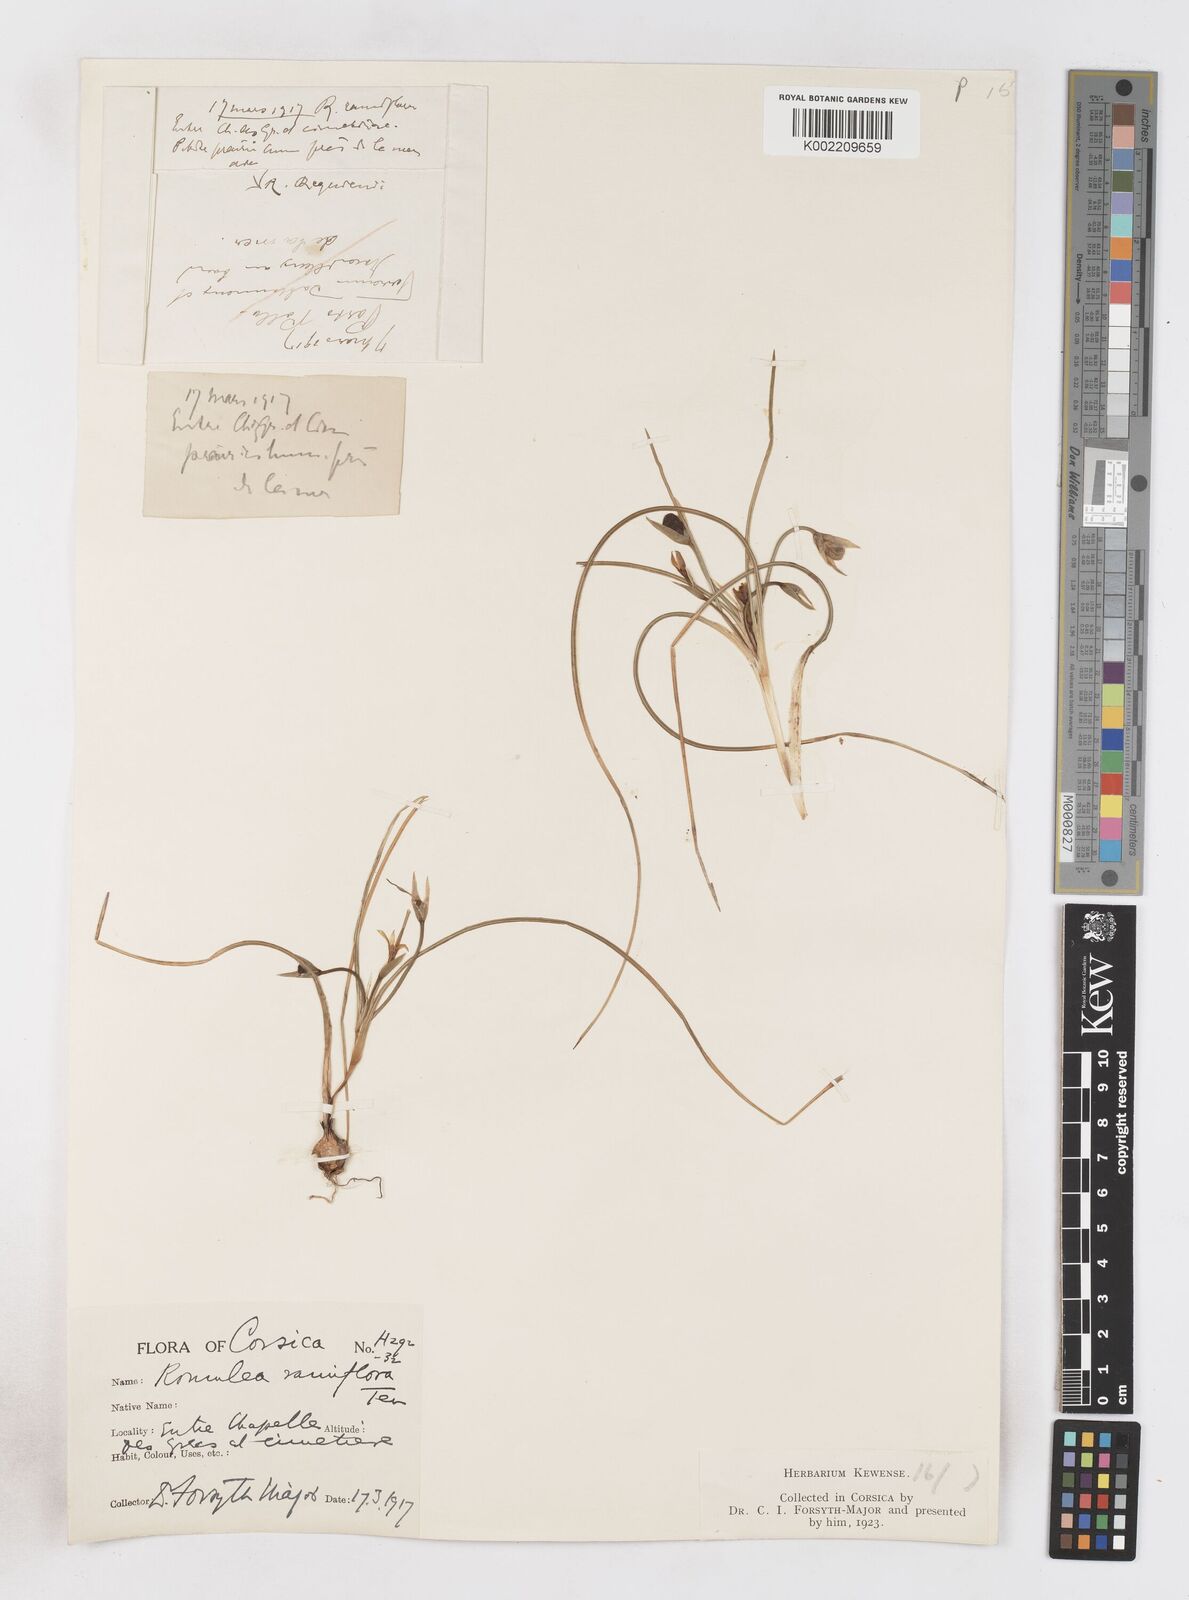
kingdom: Plantae
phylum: Tracheophyta
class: Liliopsida
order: Asparagales
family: Iridaceae
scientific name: Iridaceae
